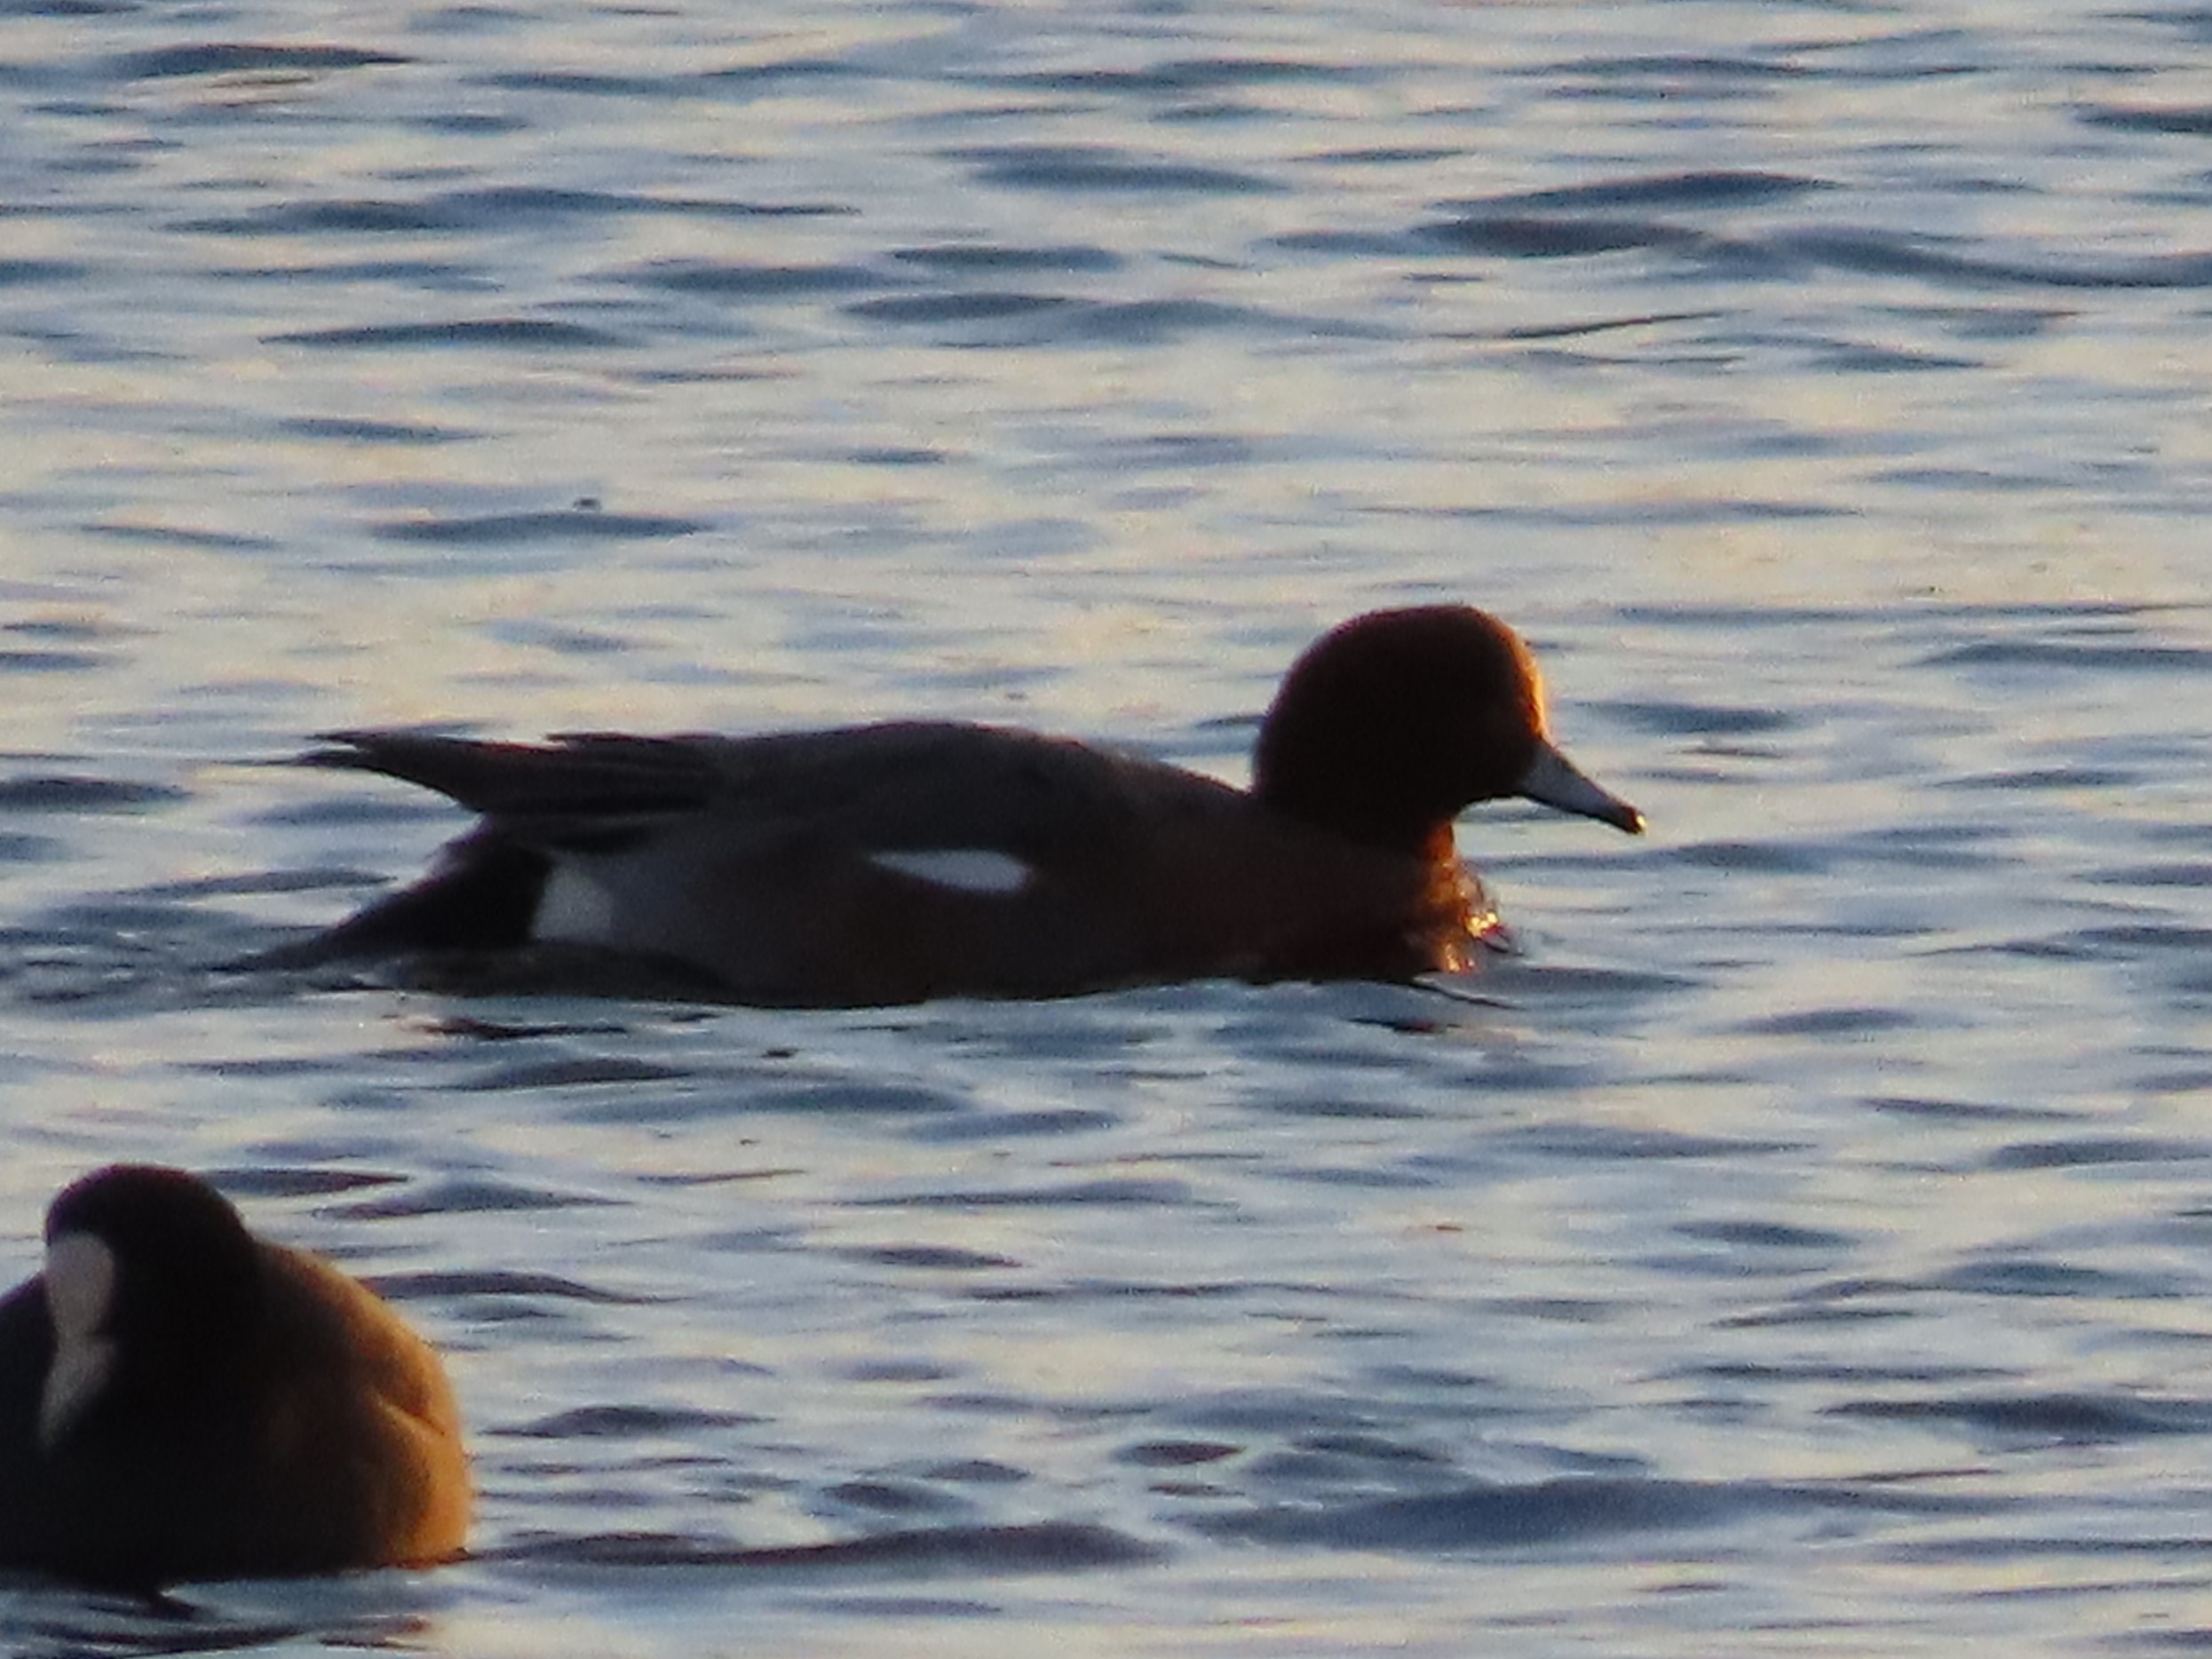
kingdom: Animalia
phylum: Chordata
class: Aves
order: Anseriformes
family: Anatidae
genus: Mareca
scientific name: Mareca penelope
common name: Pibeand
